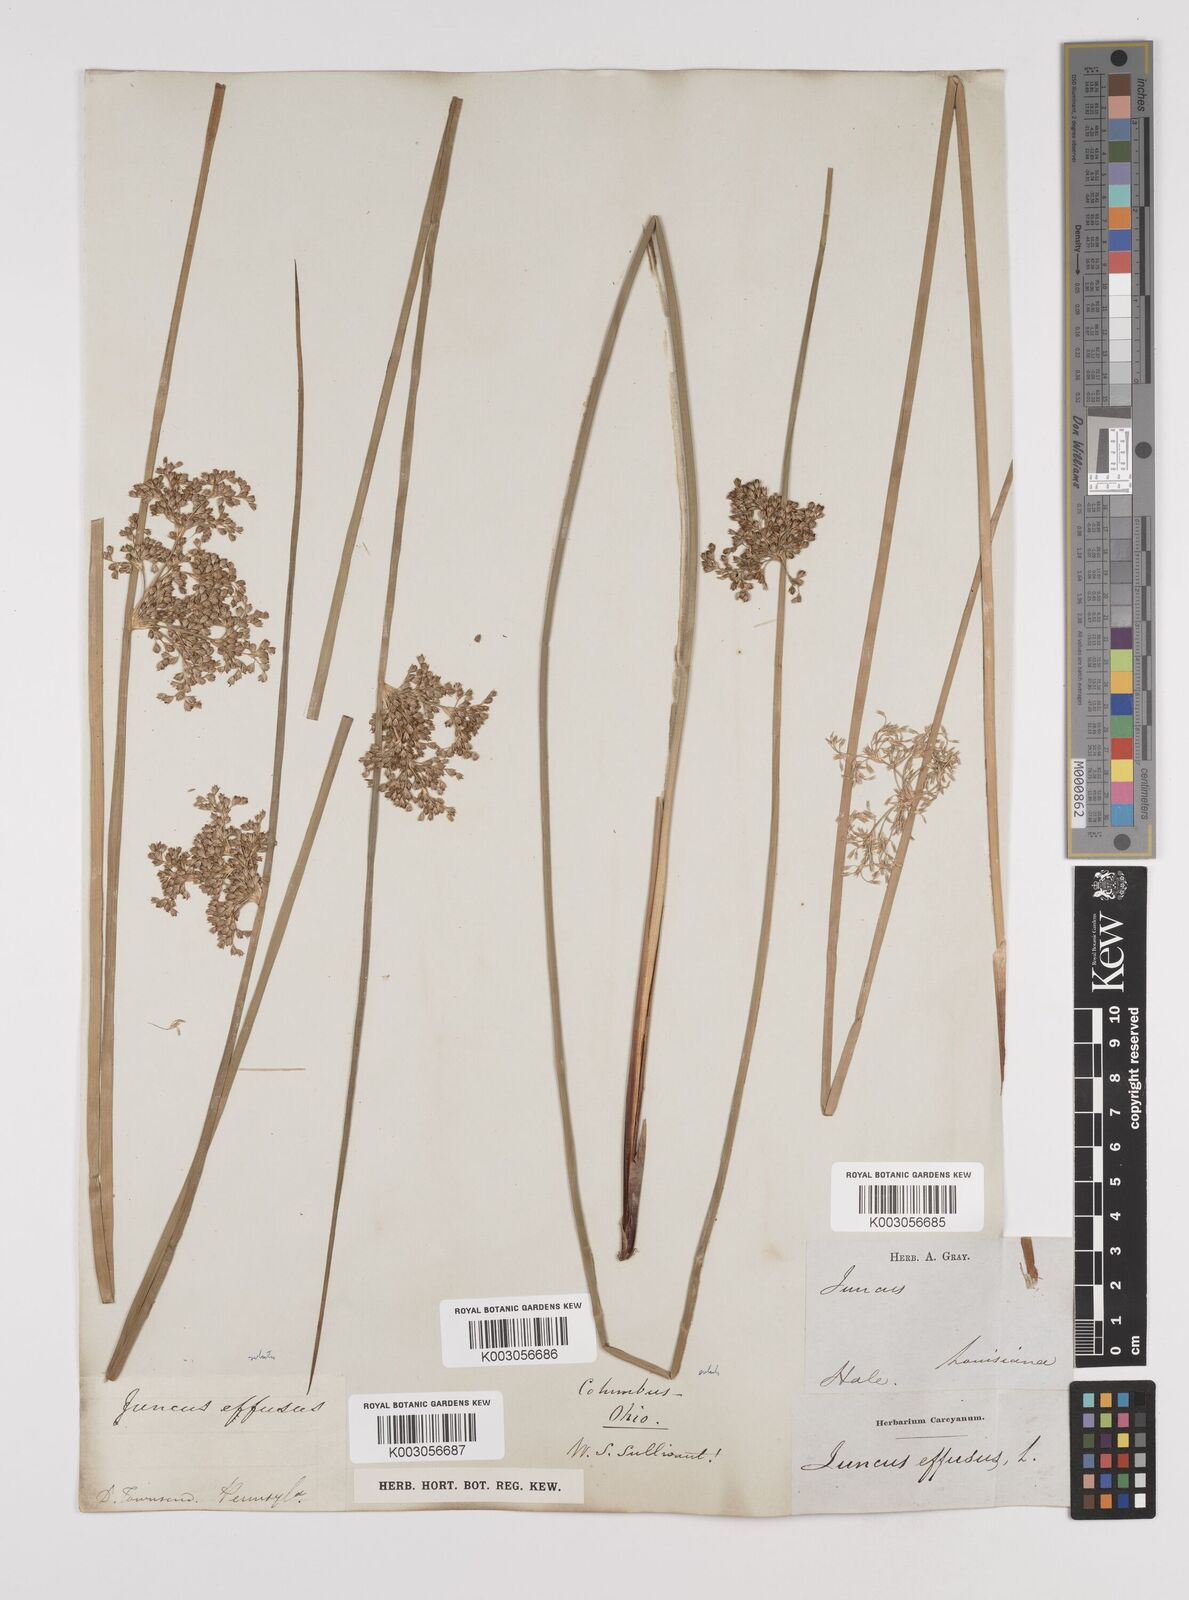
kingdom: Plantae
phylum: Tracheophyta
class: Liliopsida
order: Poales
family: Juncaceae
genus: Juncus
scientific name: Juncus effusus
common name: Soft rush
